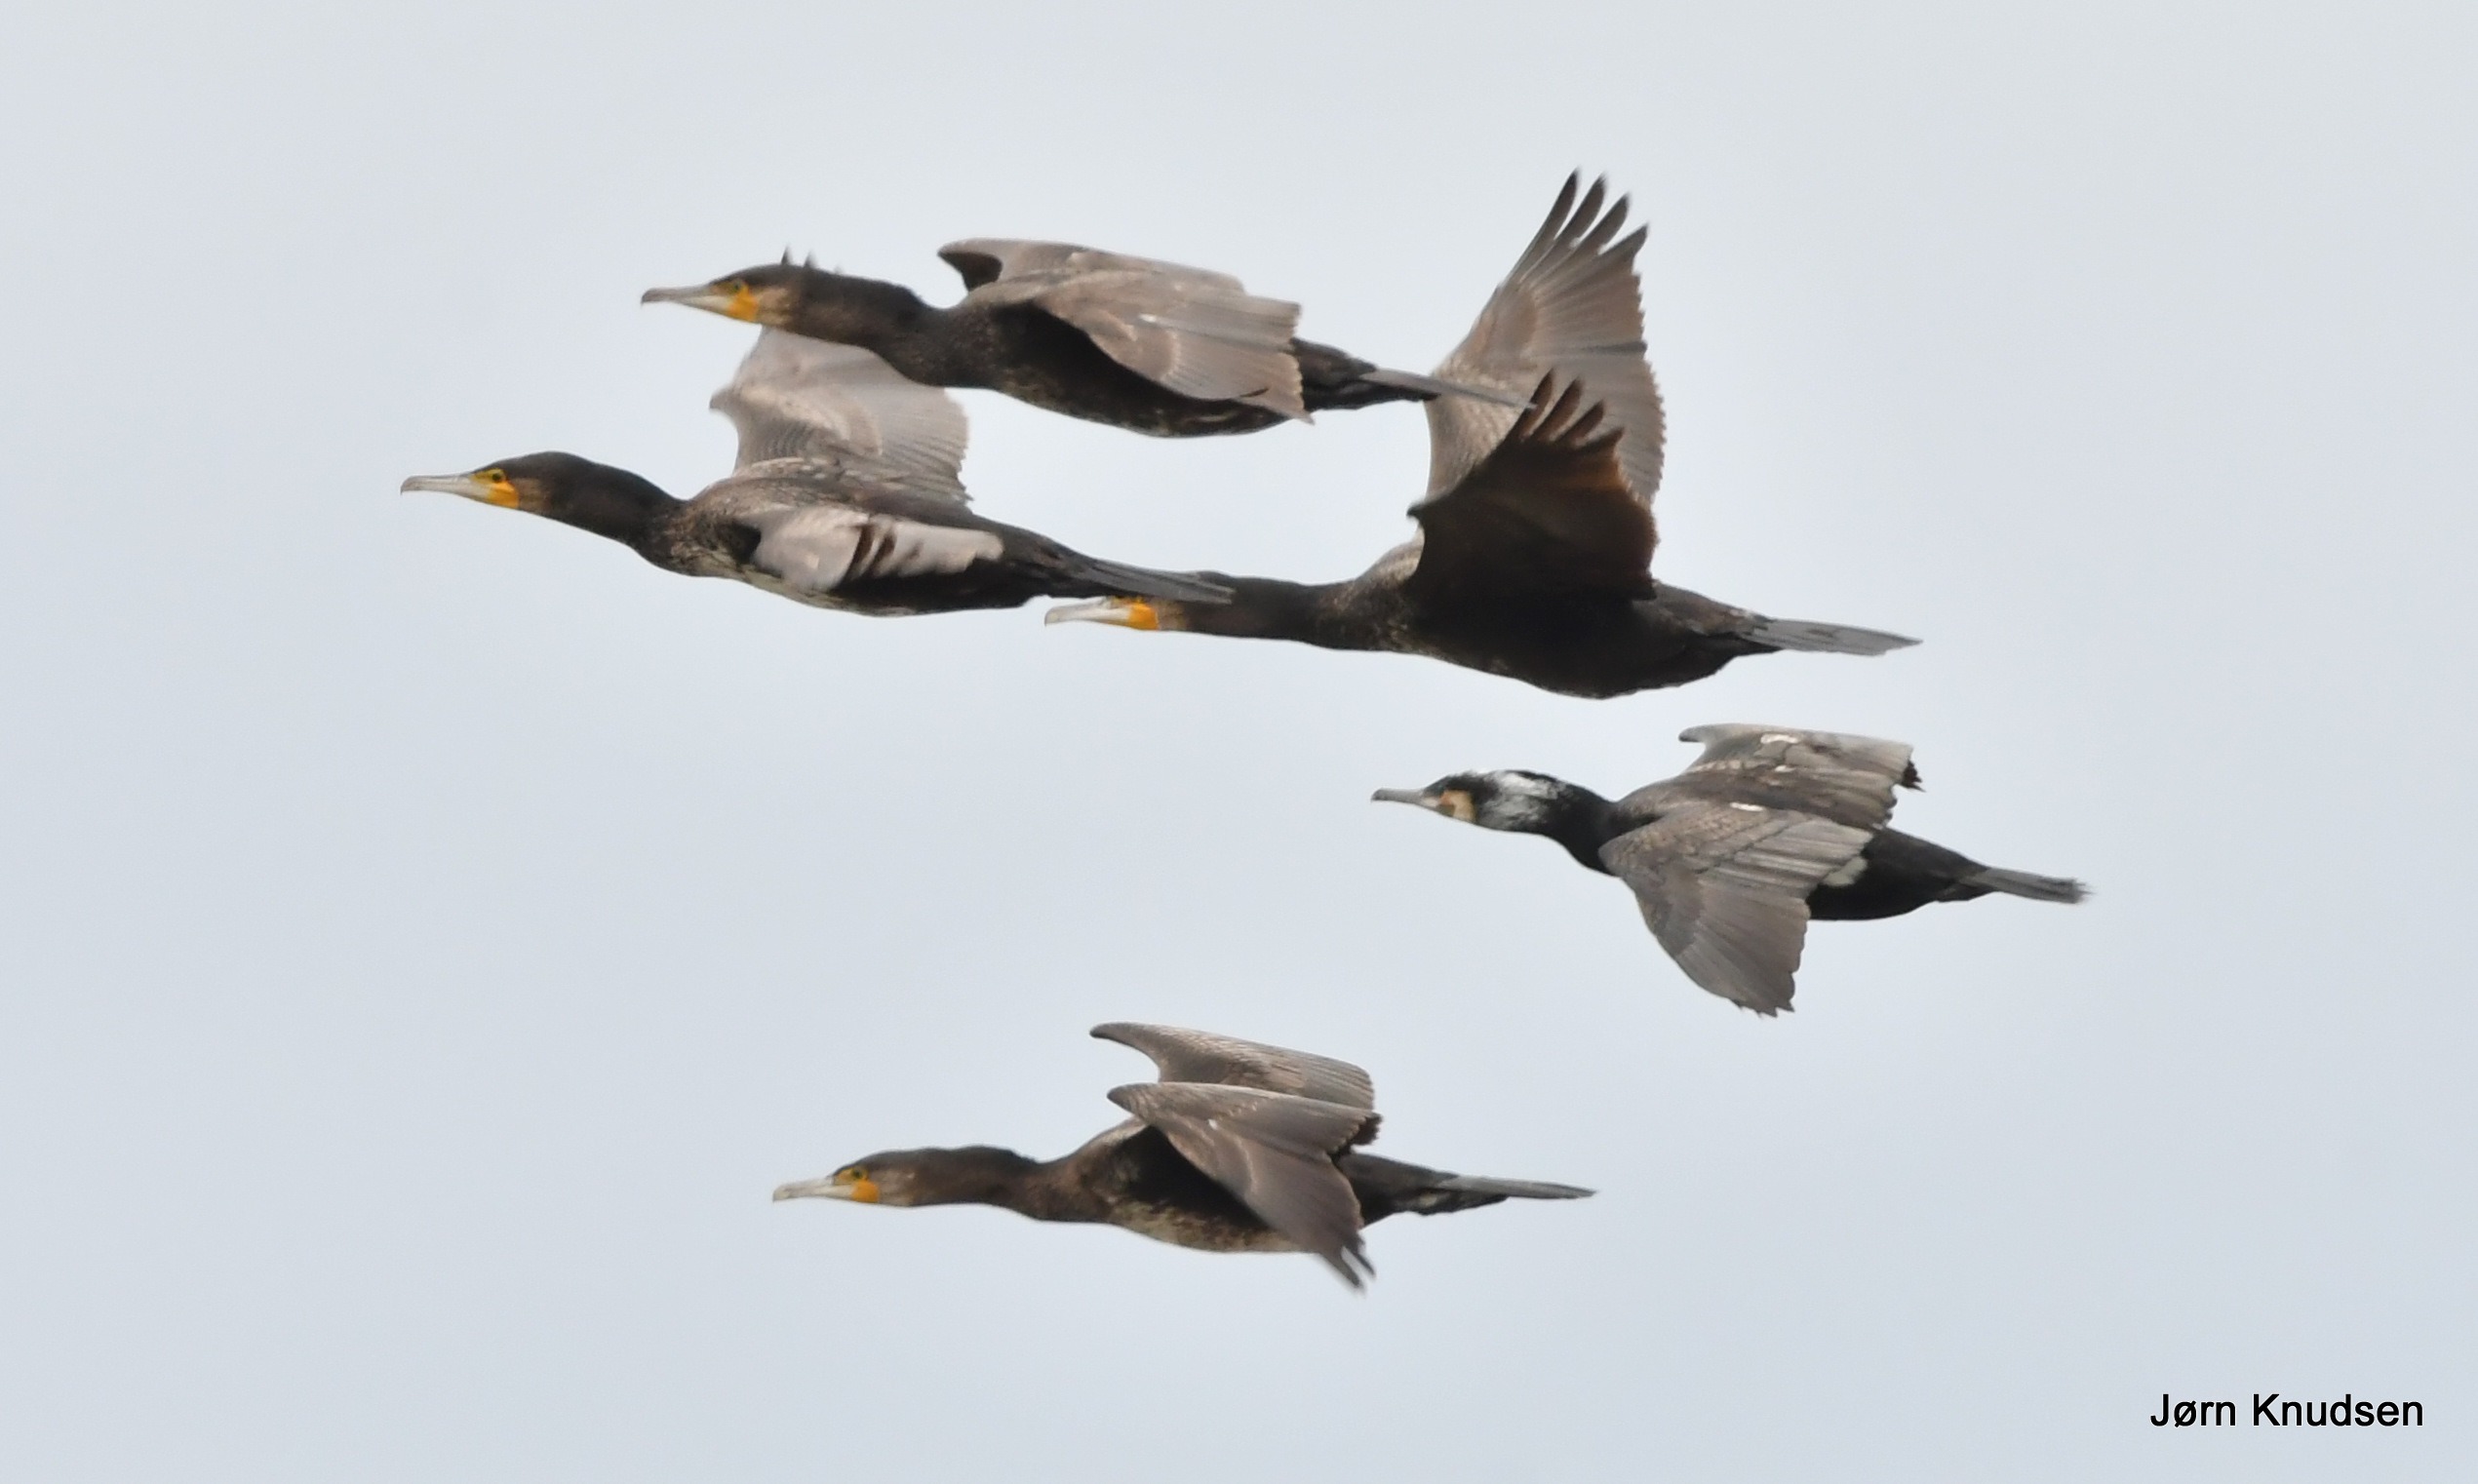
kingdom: Animalia
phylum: Chordata
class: Aves
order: Suliformes
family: Phalacrocoracidae
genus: Phalacrocorax
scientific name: Phalacrocorax carbo
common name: Skarv
